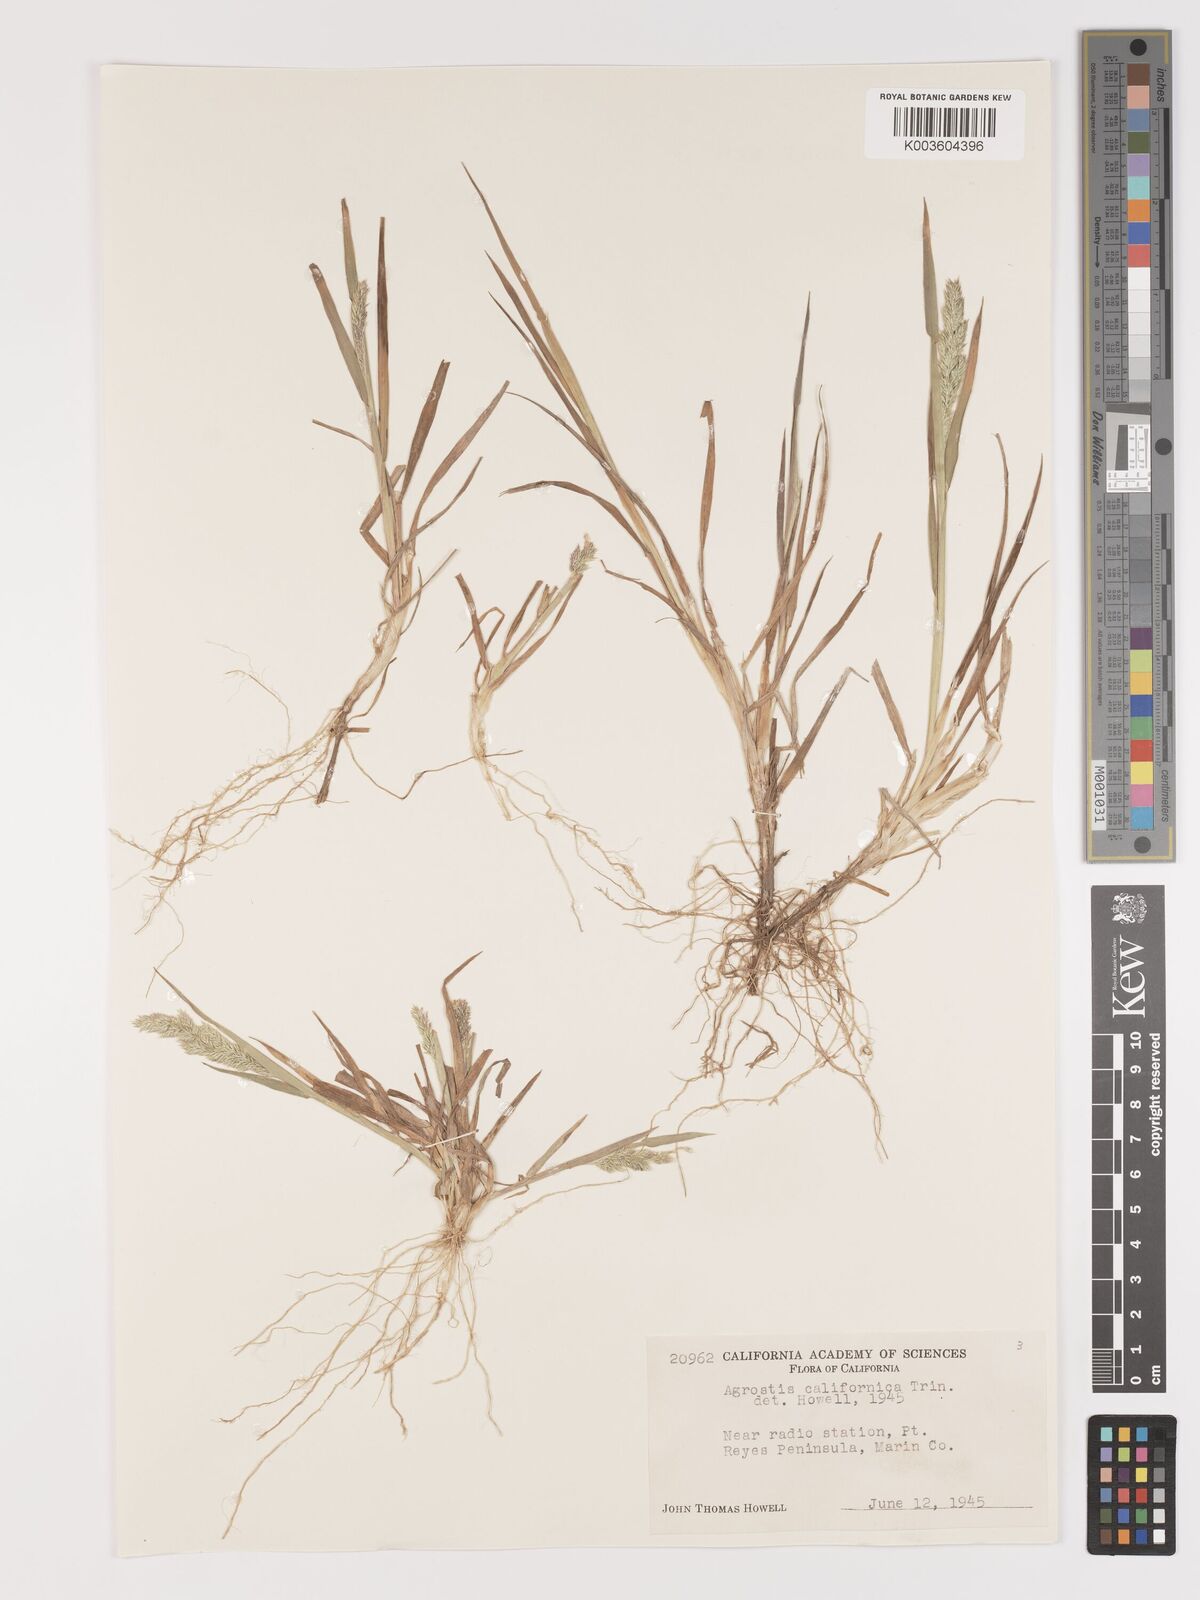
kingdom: Plantae
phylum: Tracheophyta
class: Liliopsida
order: Poales
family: Poaceae
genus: Agrostis
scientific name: Agrostis tolucensis
